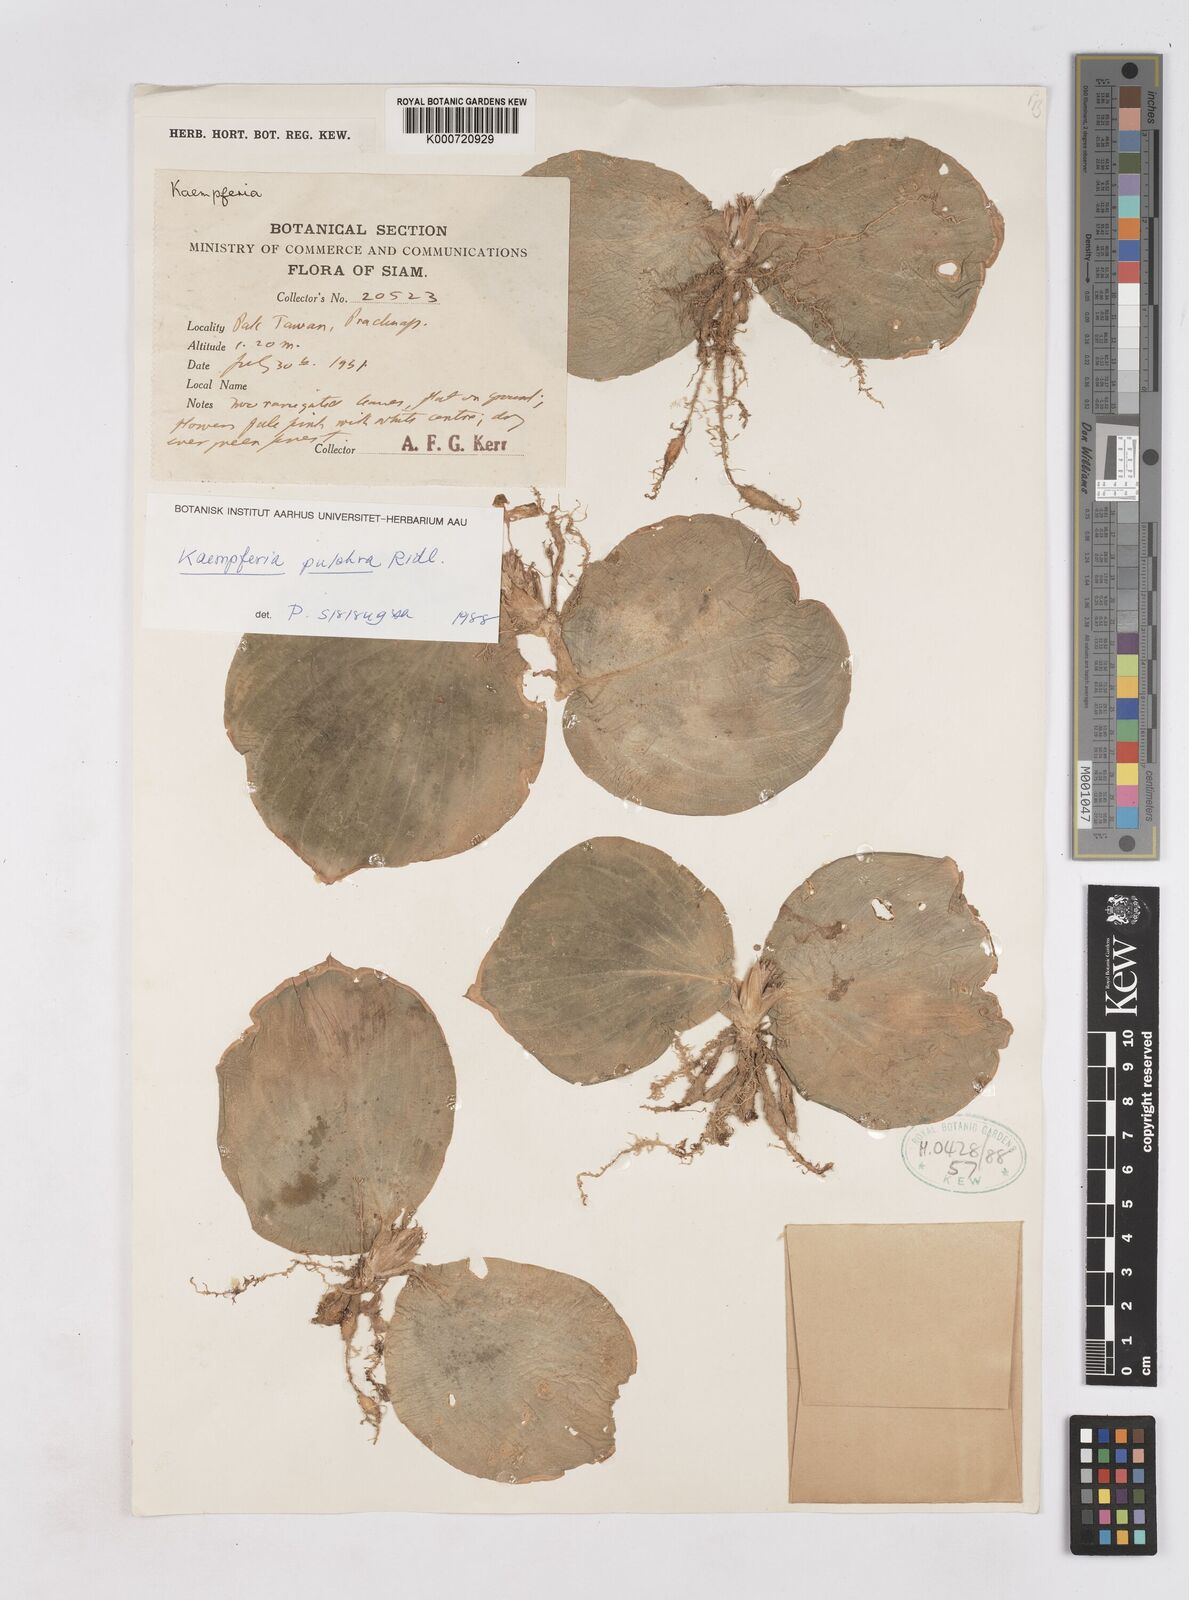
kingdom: Plantae
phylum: Tracheophyta
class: Liliopsida
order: Zingiberales
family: Zingiberaceae
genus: Kaempferia
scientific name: Kaempferia pulchra
